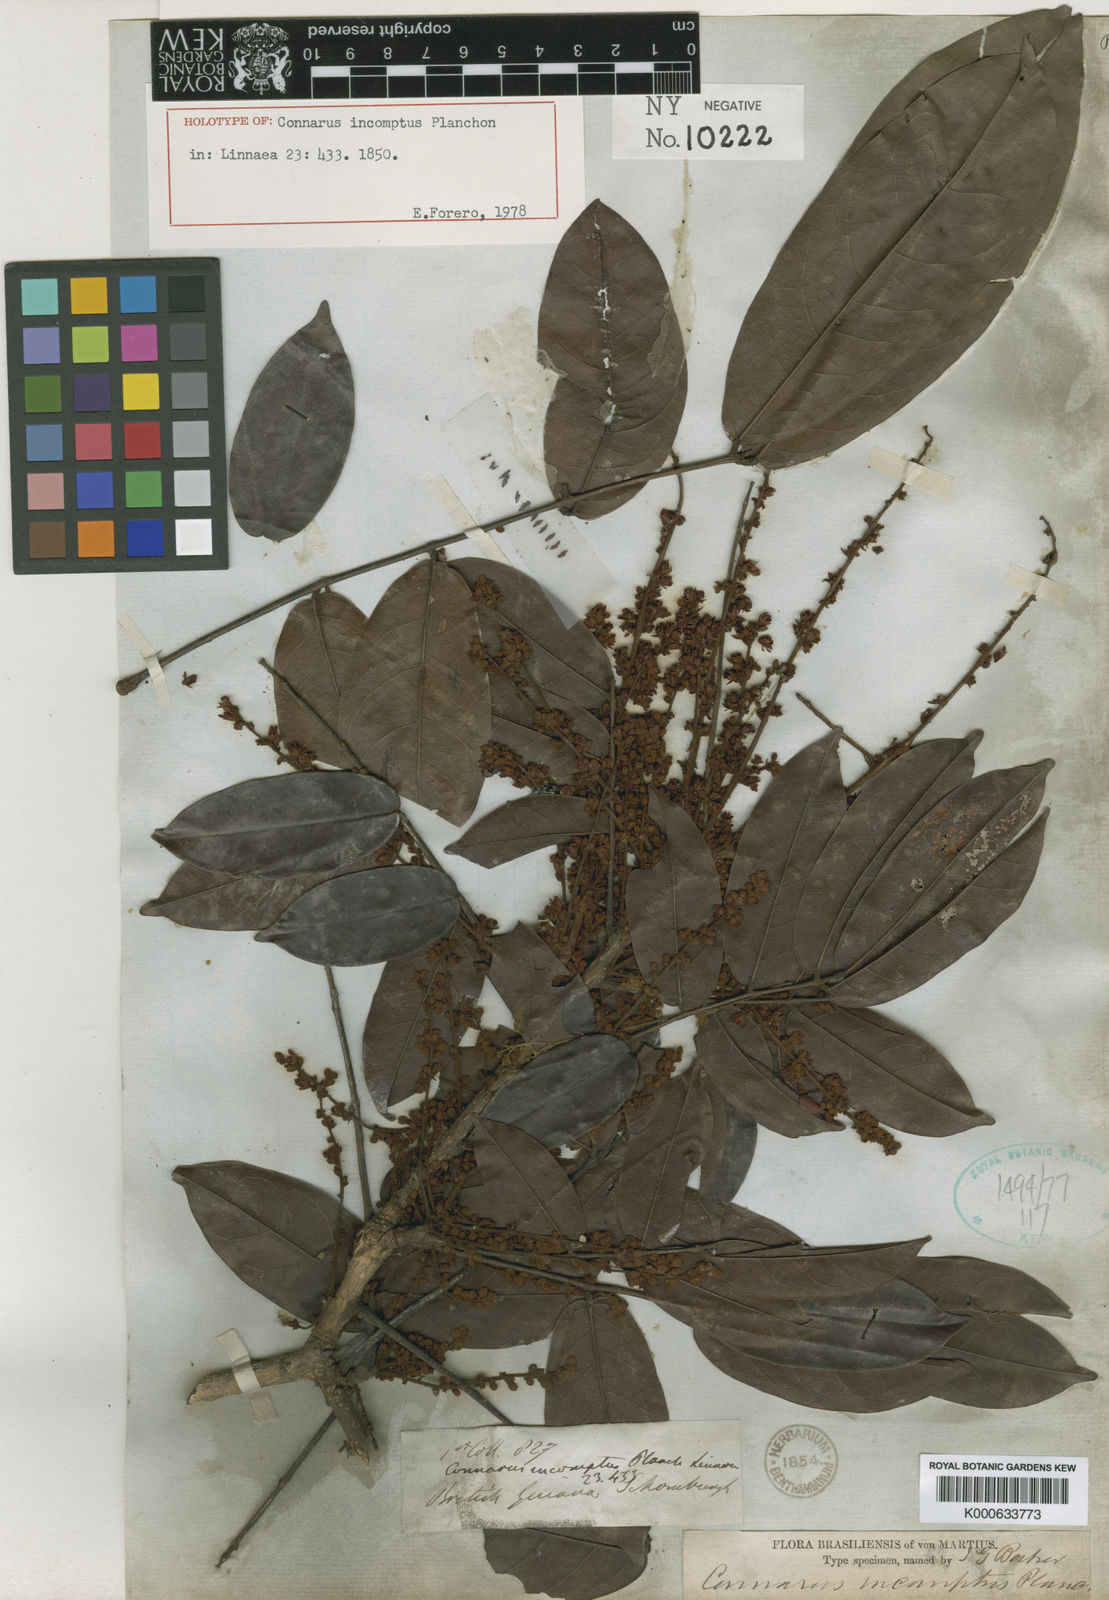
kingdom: Plantae
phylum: Tracheophyta
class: Magnoliopsida
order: Oxalidales
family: Connaraceae
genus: Connarus
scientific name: Connarus incomptus
